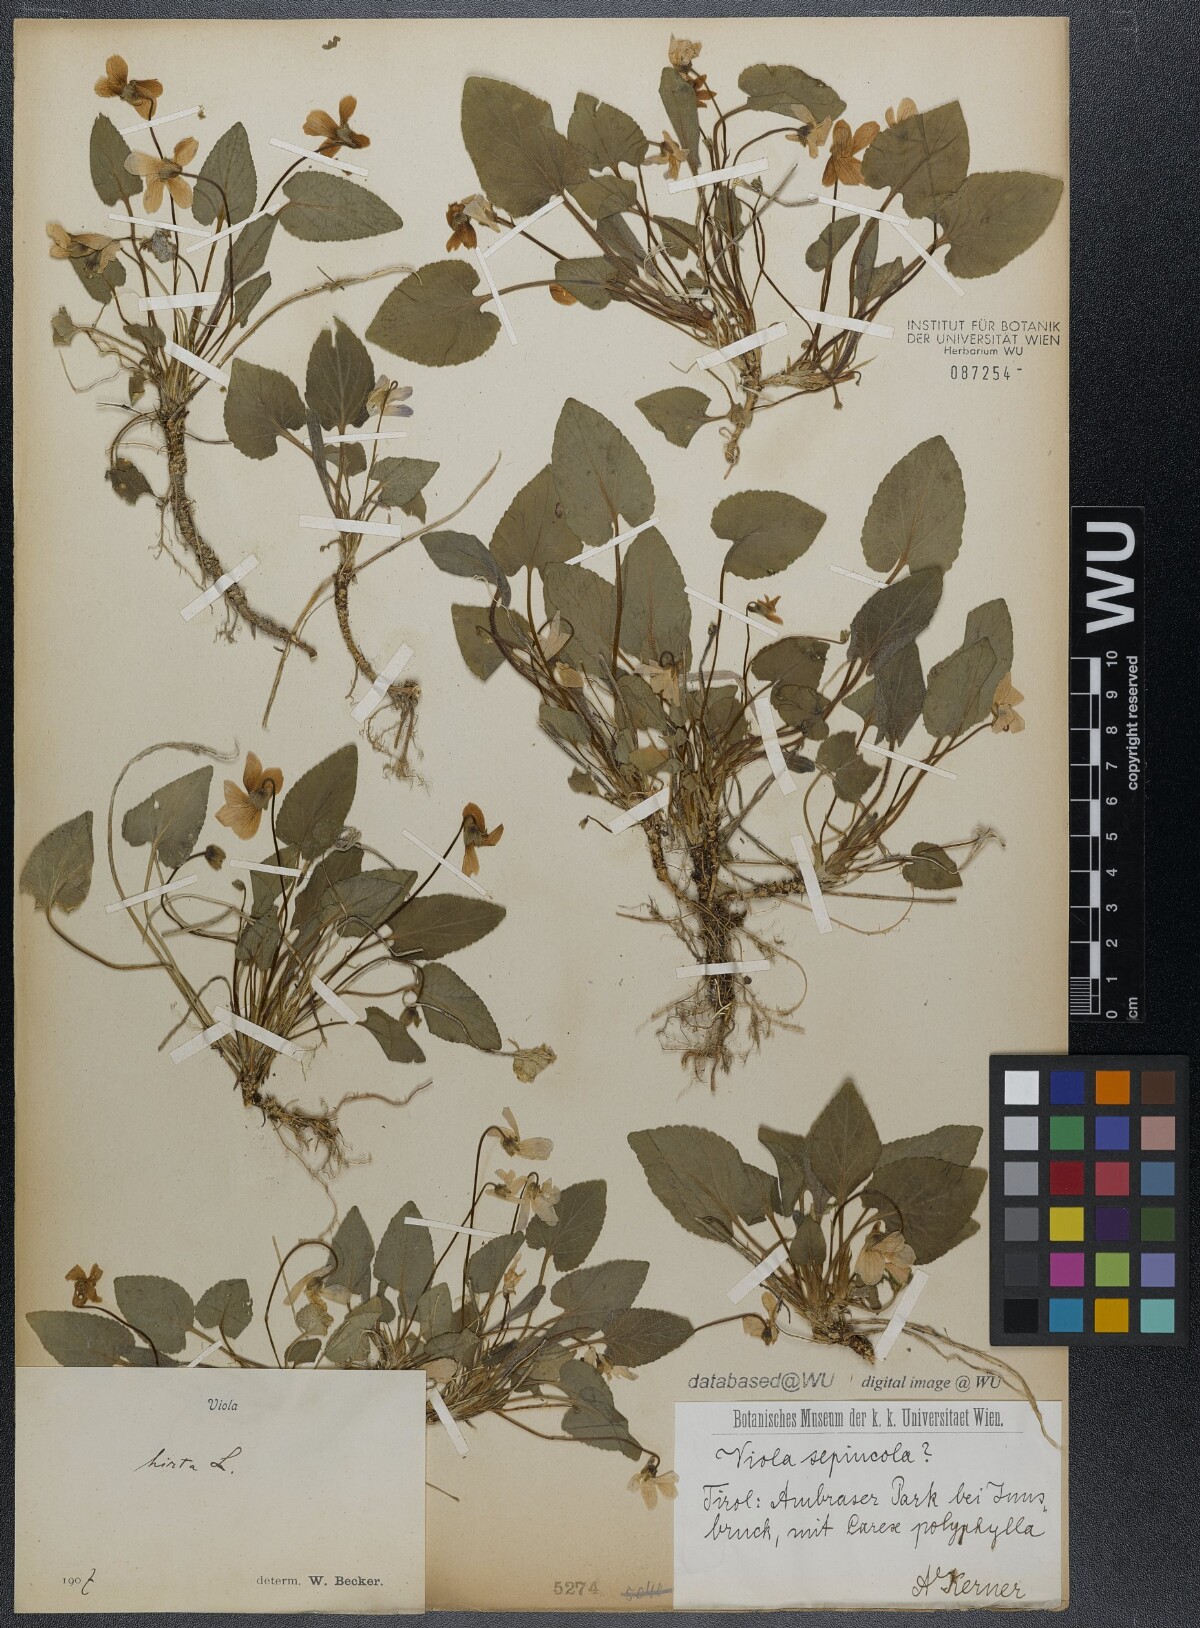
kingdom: Plantae
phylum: Tracheophyta
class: Magnoliopsida
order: Malpighiales
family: Violaceae
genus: Viola
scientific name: Viola hirta
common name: Hairy violet
